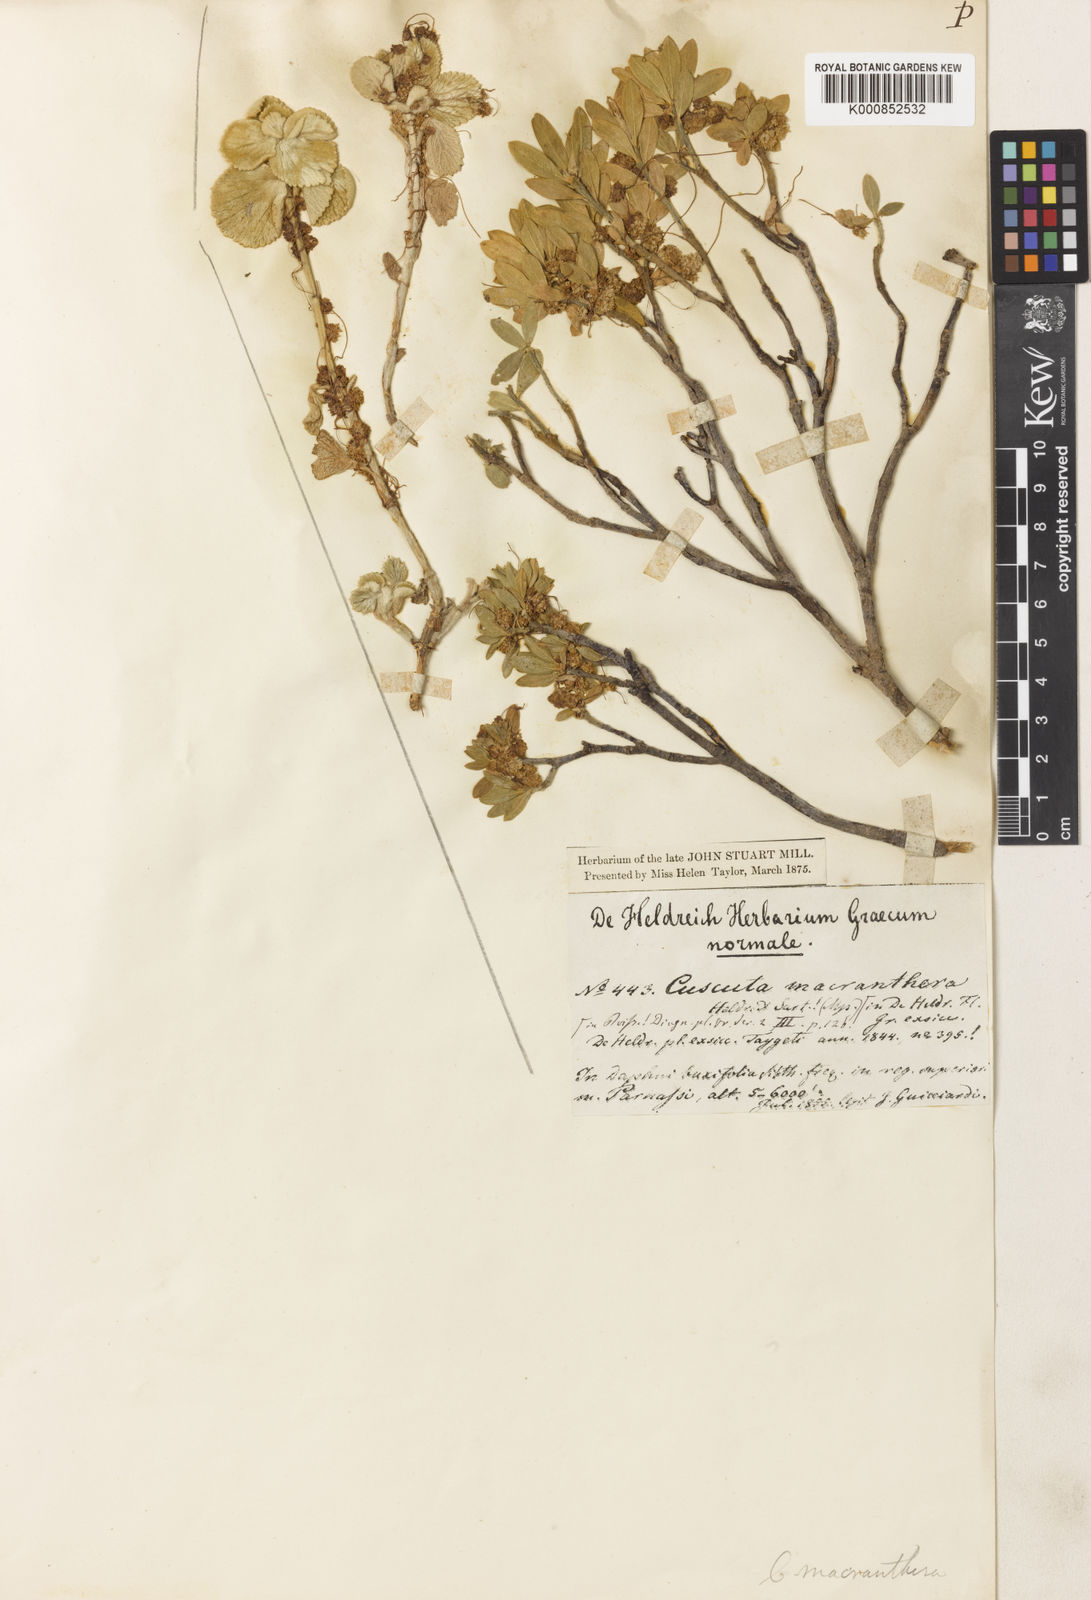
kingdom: Plantae
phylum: Tracheophyta
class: Magnoliopsida
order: Solanales
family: Convolvulaceae
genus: Cuscuta
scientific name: Cuscuta epithymum
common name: Clover dodder
